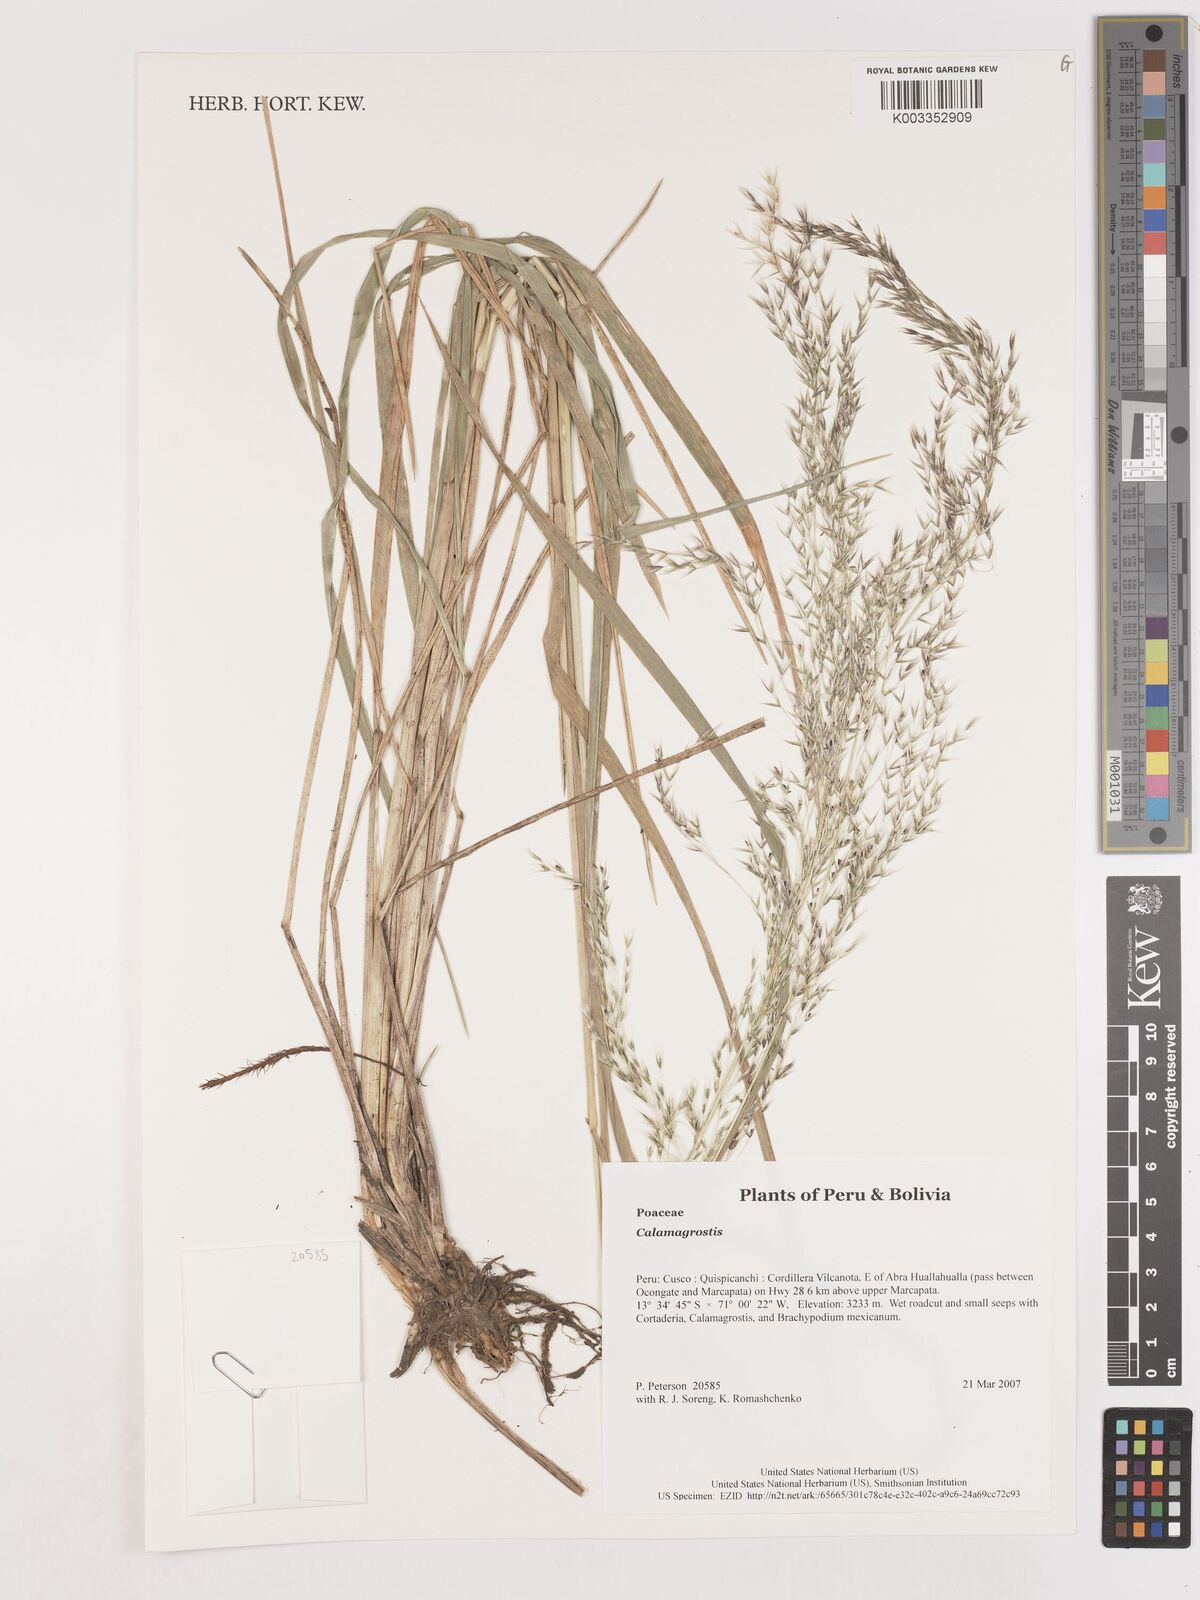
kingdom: Plantae
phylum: Tracheophyta
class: Liliopsida
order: Poales
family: Poaceae
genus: Calamagrostis
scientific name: Calamagrostis
